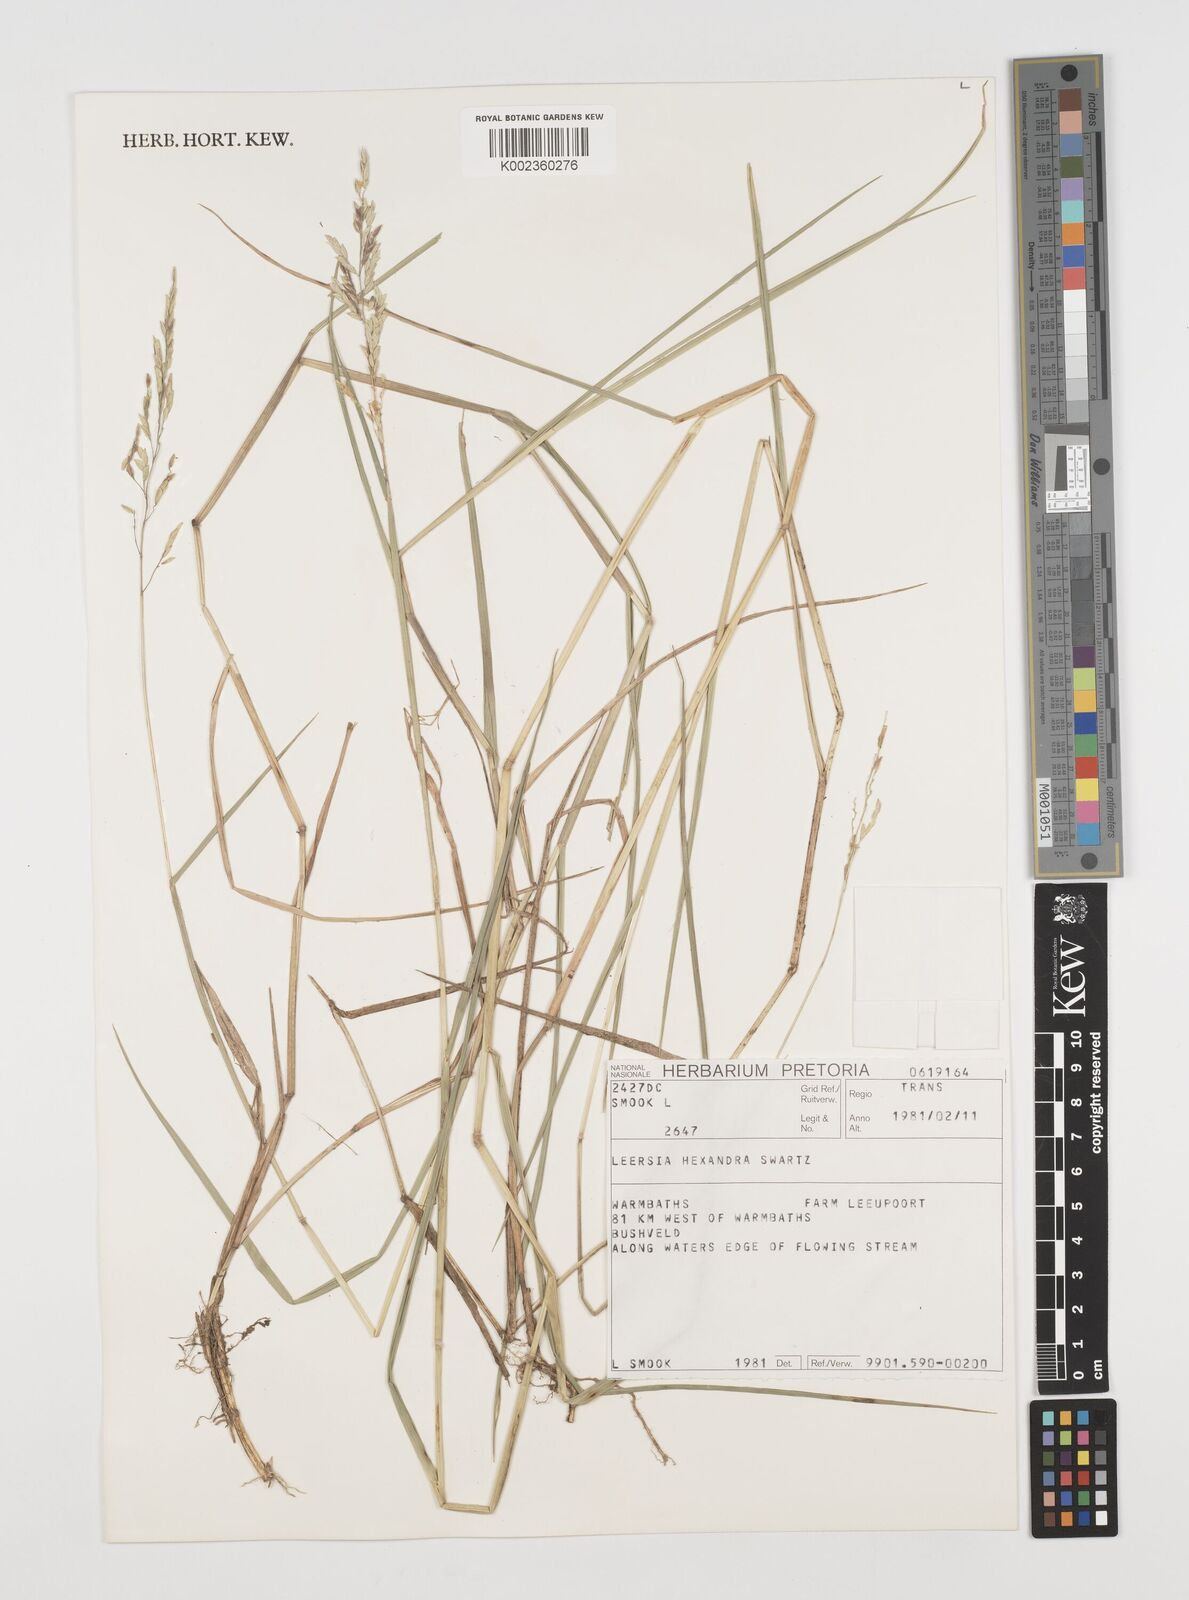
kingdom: Plantae
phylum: Tracheophyta
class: Liliopsida
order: Poales
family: Poaceae
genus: Leersia
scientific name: Leersia hexandra
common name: Southern cut grass
